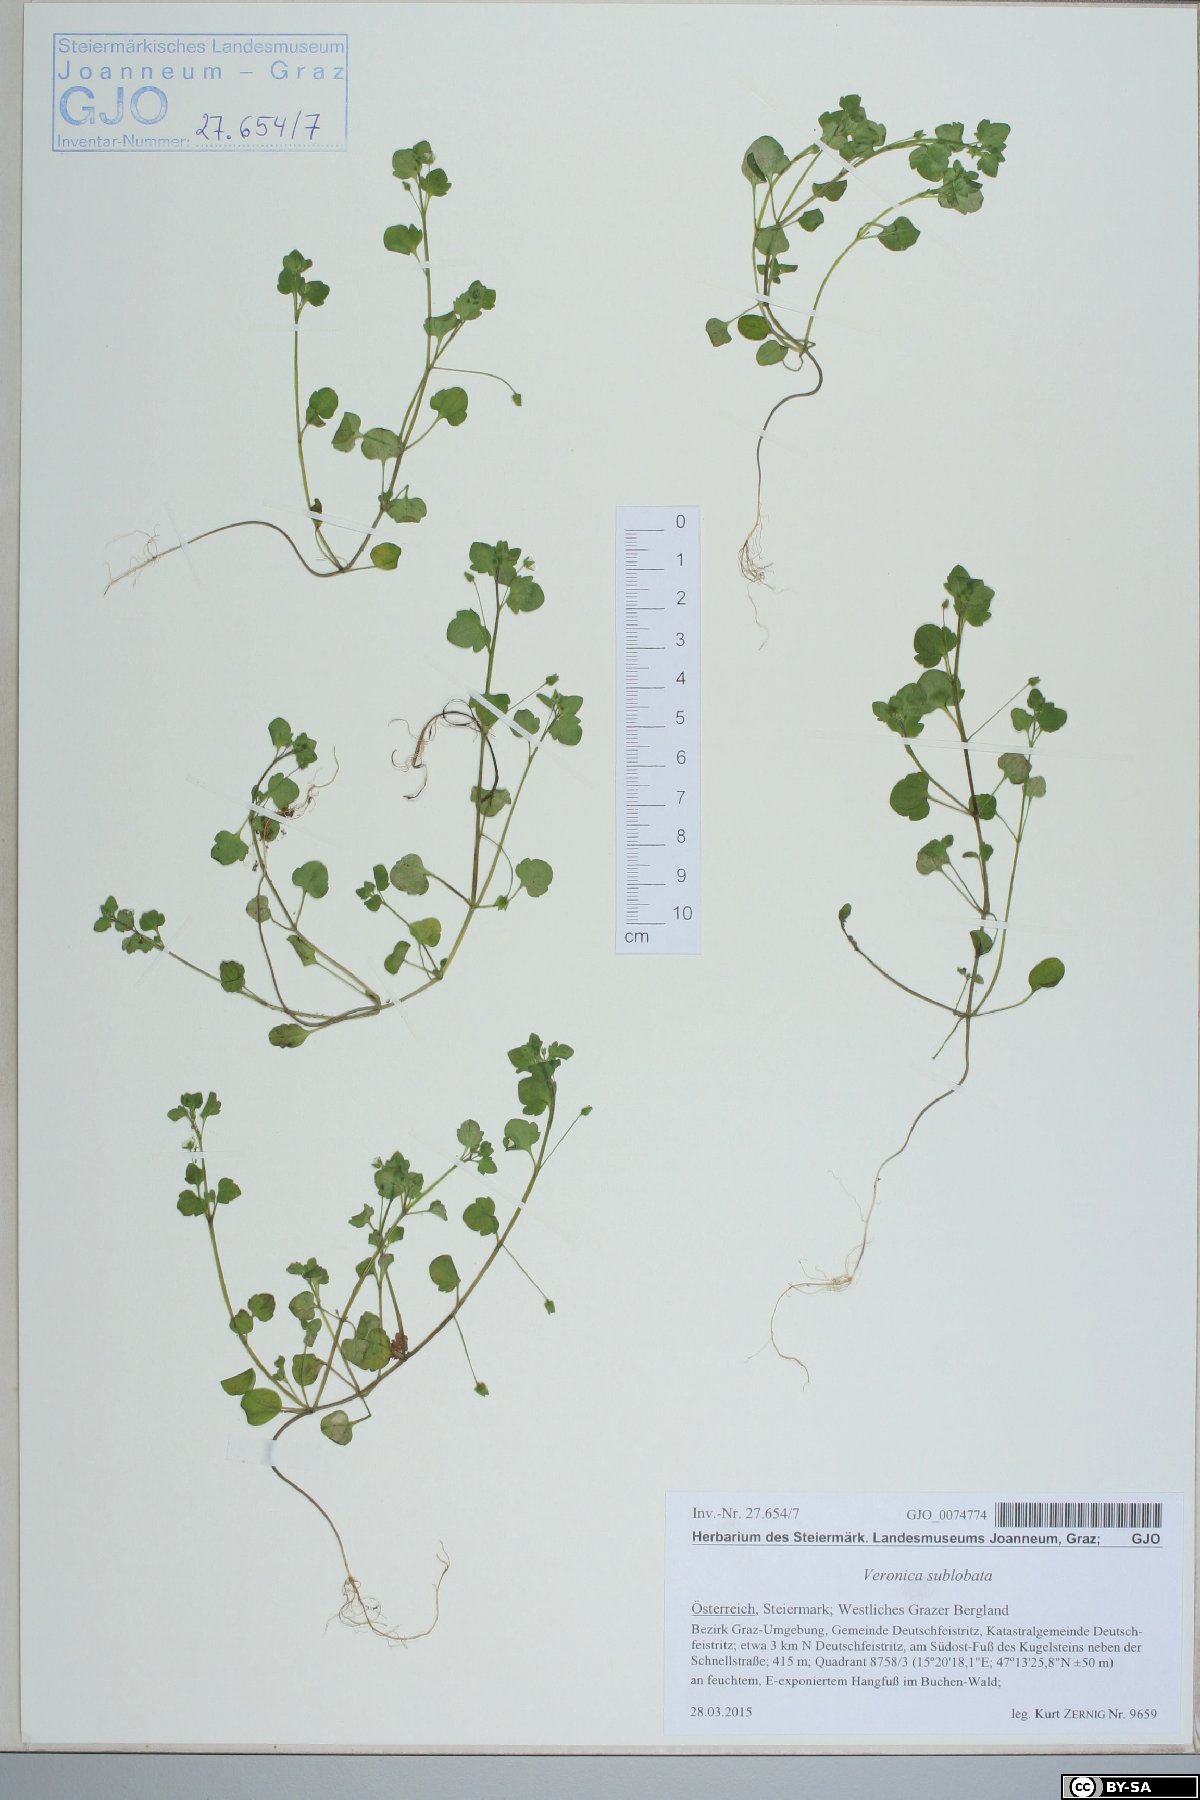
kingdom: Plantae
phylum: Tracheophyta
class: Magnoliopsida
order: Lamiales
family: Plantaginaceae
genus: Veronica
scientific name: Veronica sublobata
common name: False ivy-leaved speedwell
